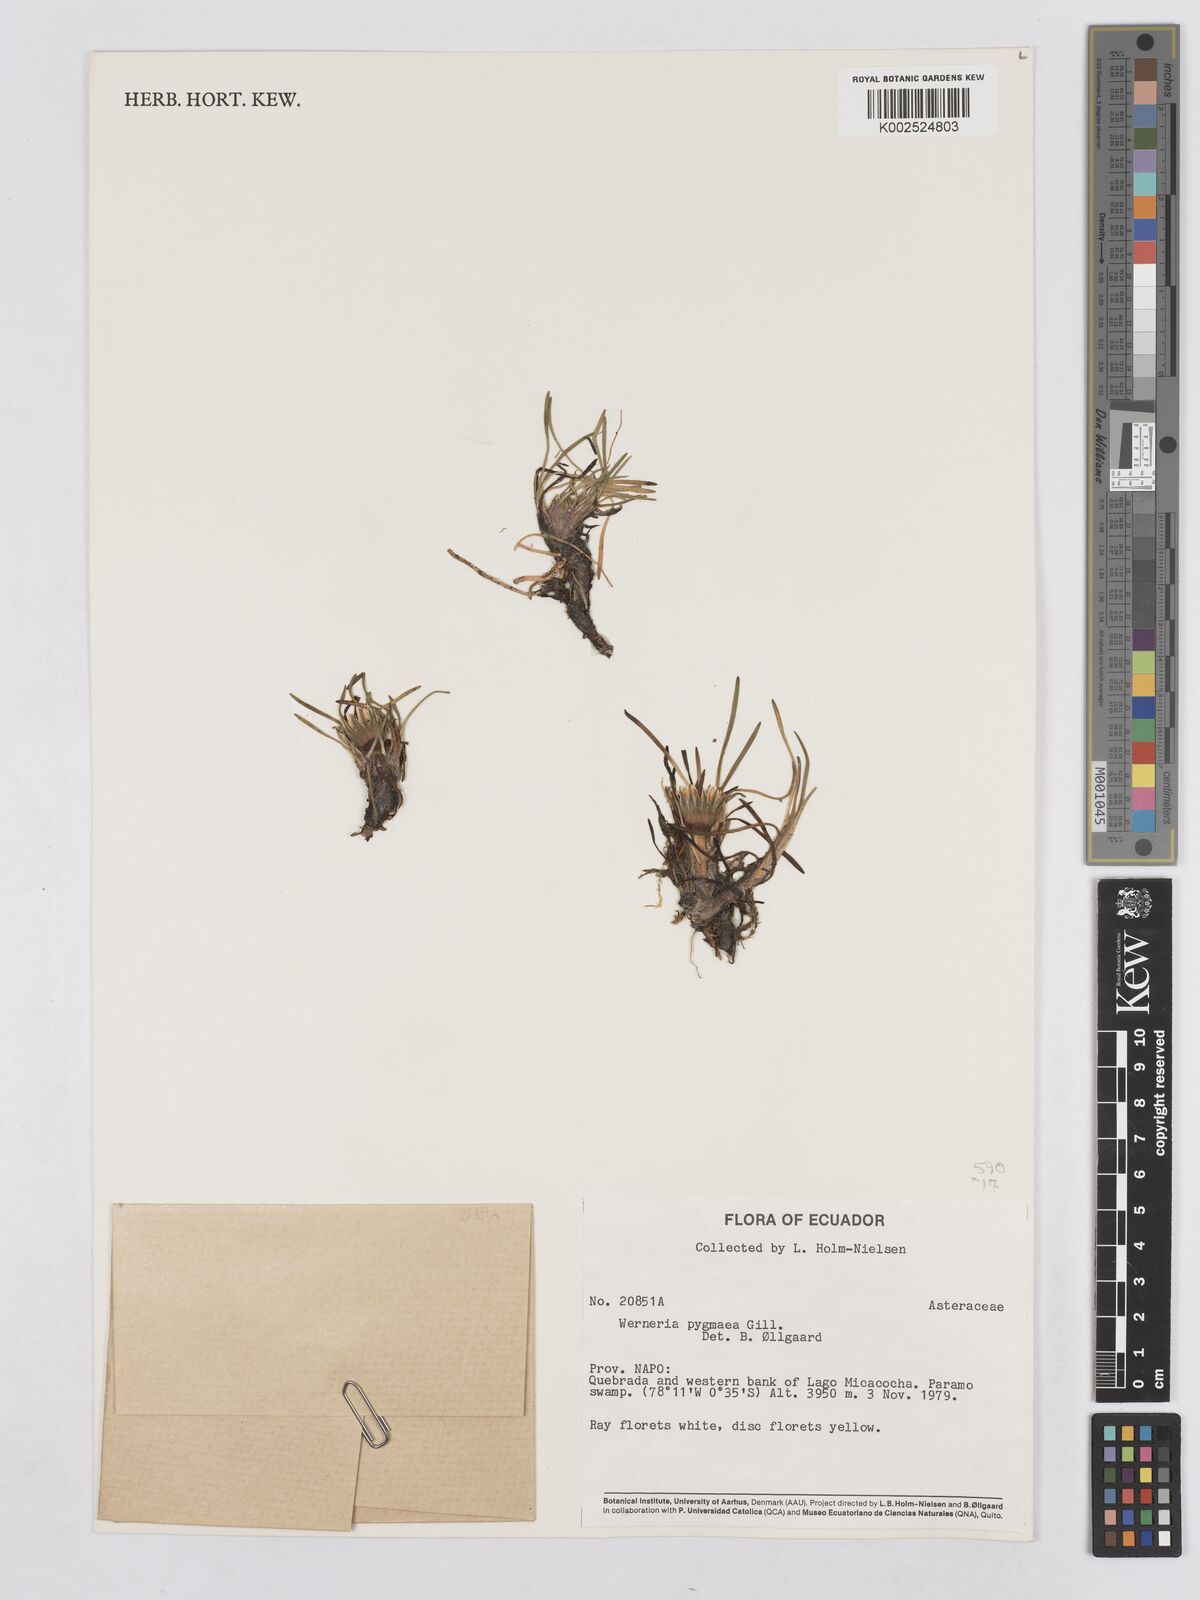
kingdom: Plantae
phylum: Tracheophyta
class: Magnoliopsida
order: Asterales
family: Asteraceae
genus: Rockhausenia
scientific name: Rockhausenia pygmaea
